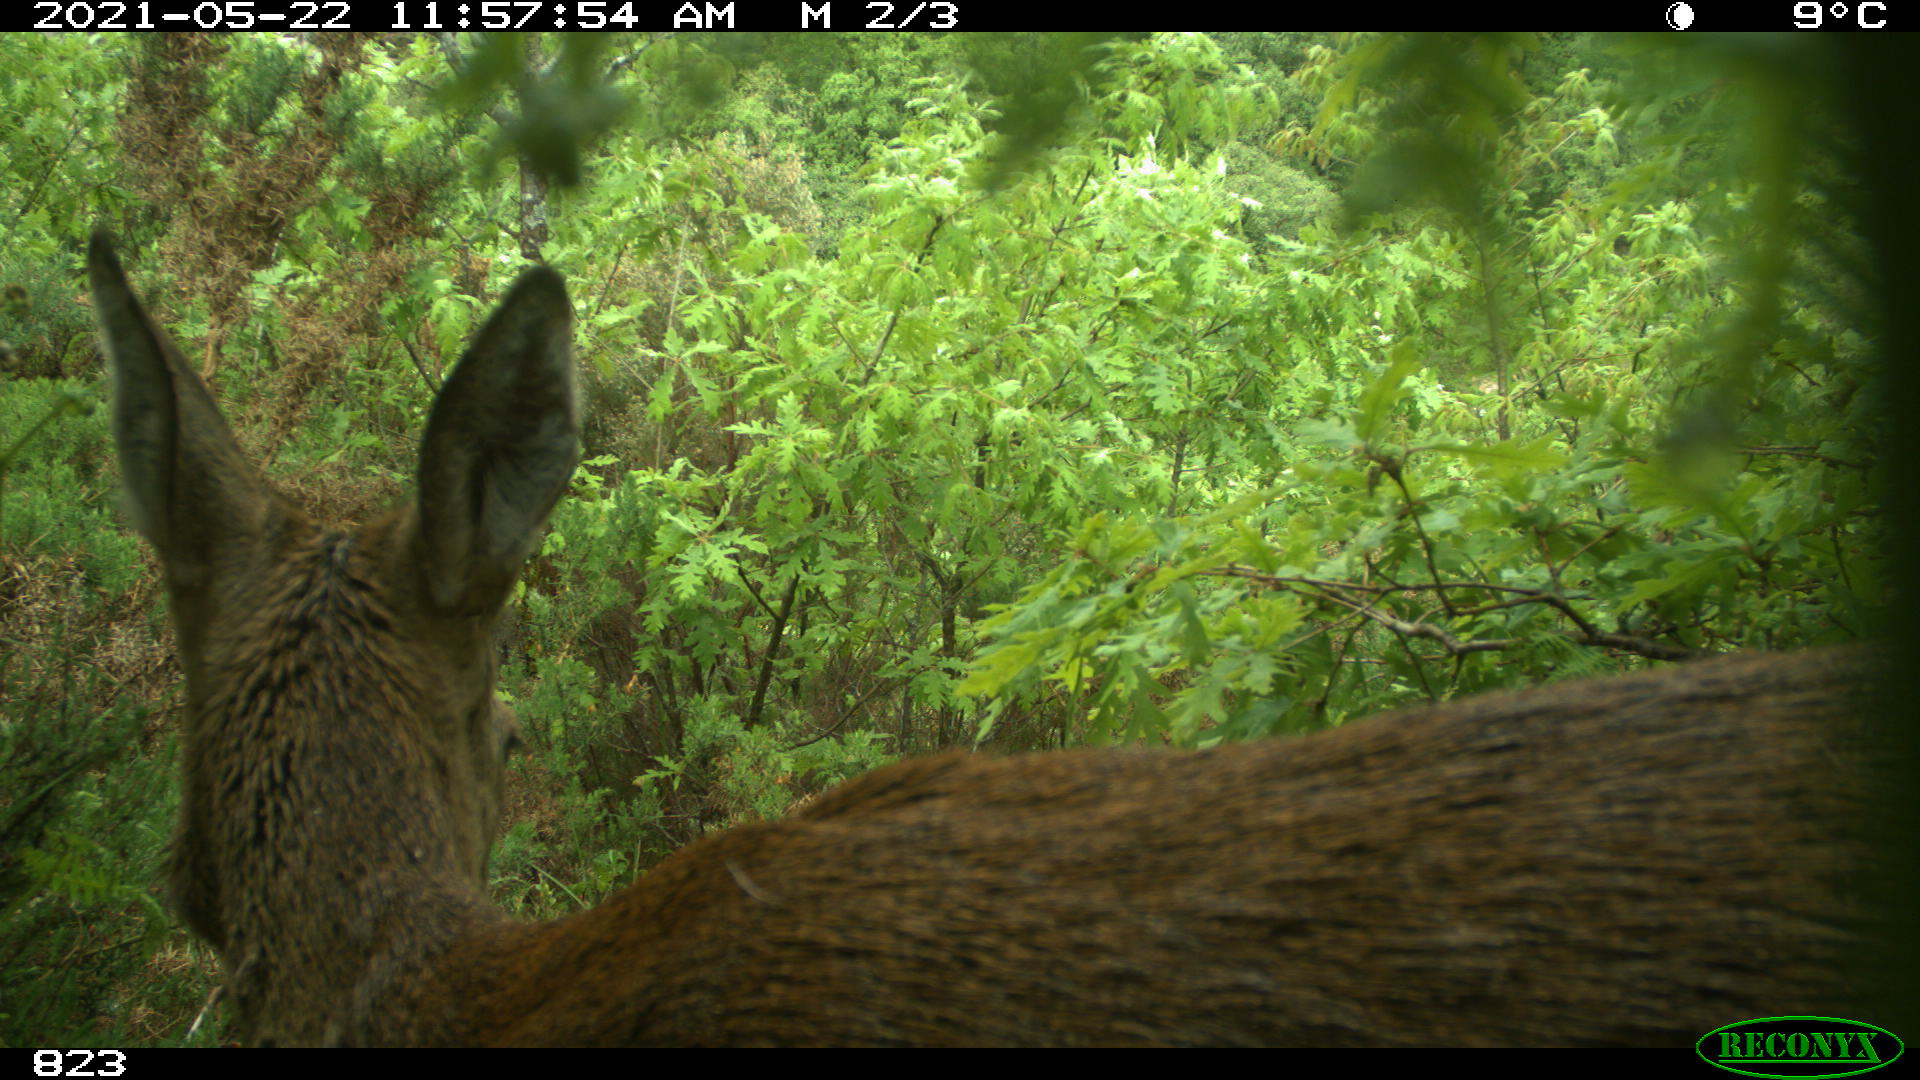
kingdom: Animalia
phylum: Chordata
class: Mammalia
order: Artiodactyla
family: Cervidae
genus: Capreolus
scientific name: Capreolus capreolus
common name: Western roe deer
